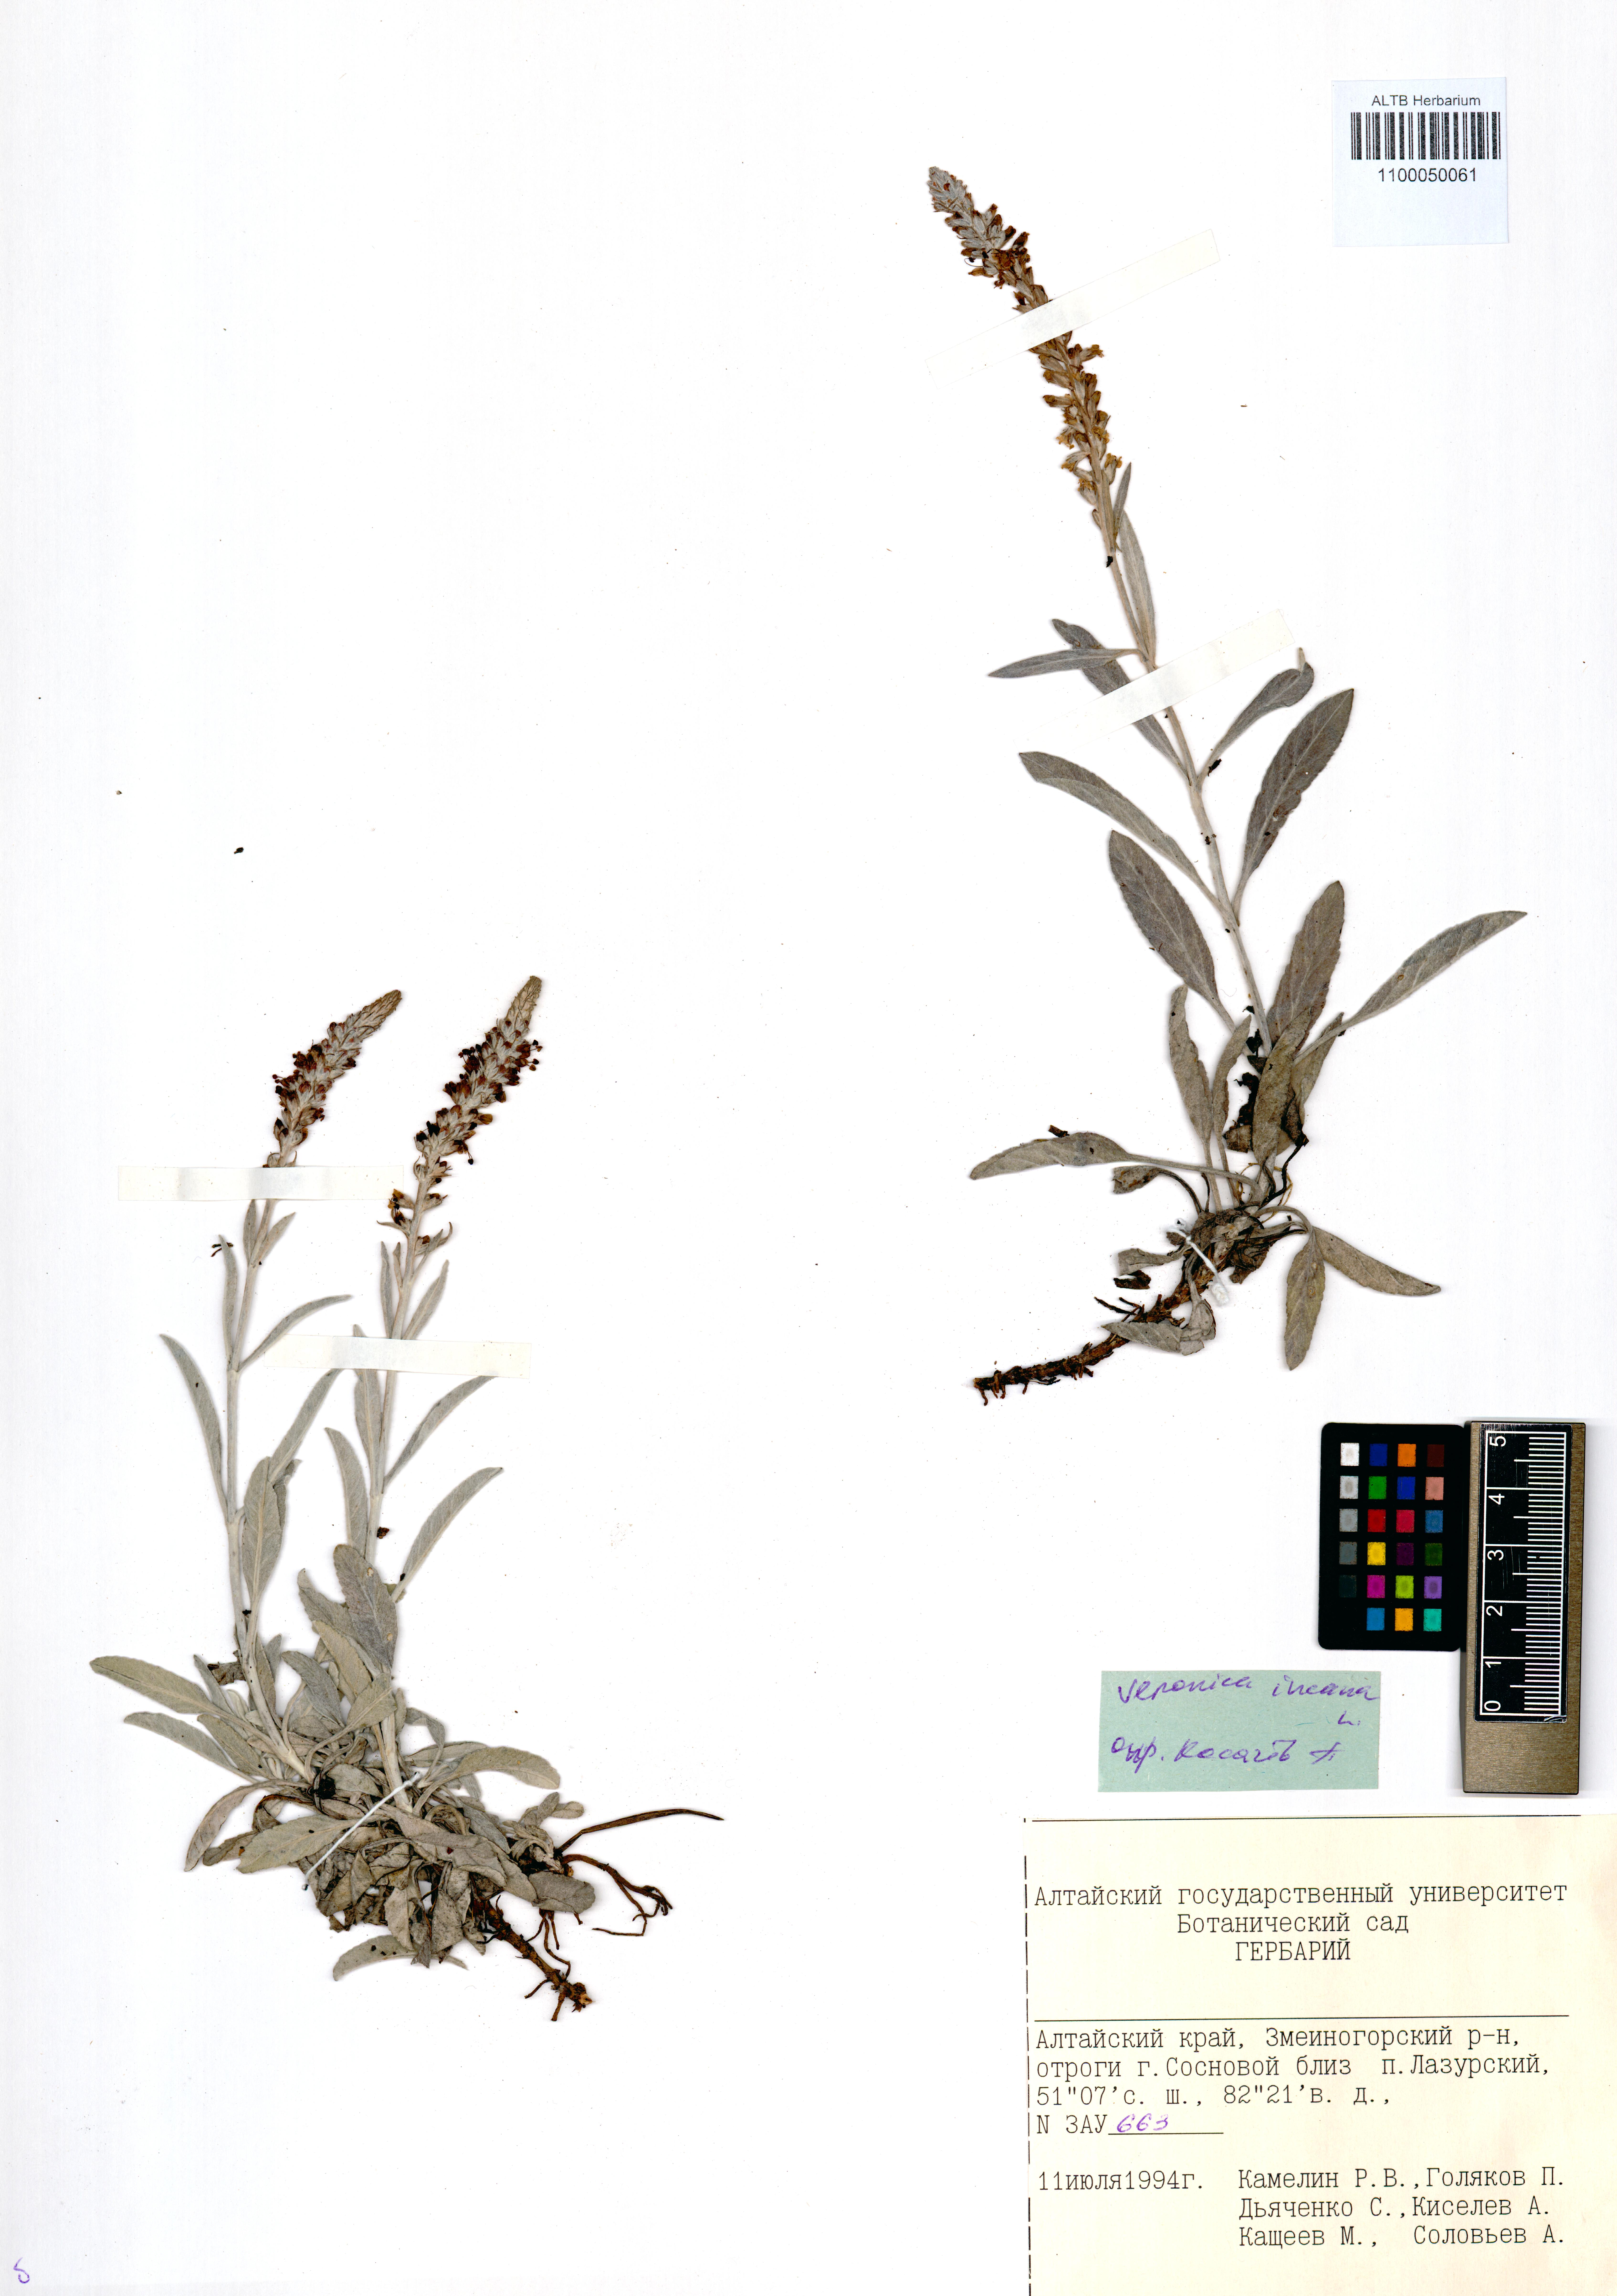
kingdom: Plantae
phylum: Tracheophyta
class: Magnoliopsida
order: Lamiales
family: Plantaginaceae
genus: Veronica
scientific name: Veronica incana
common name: Silver speedwell
